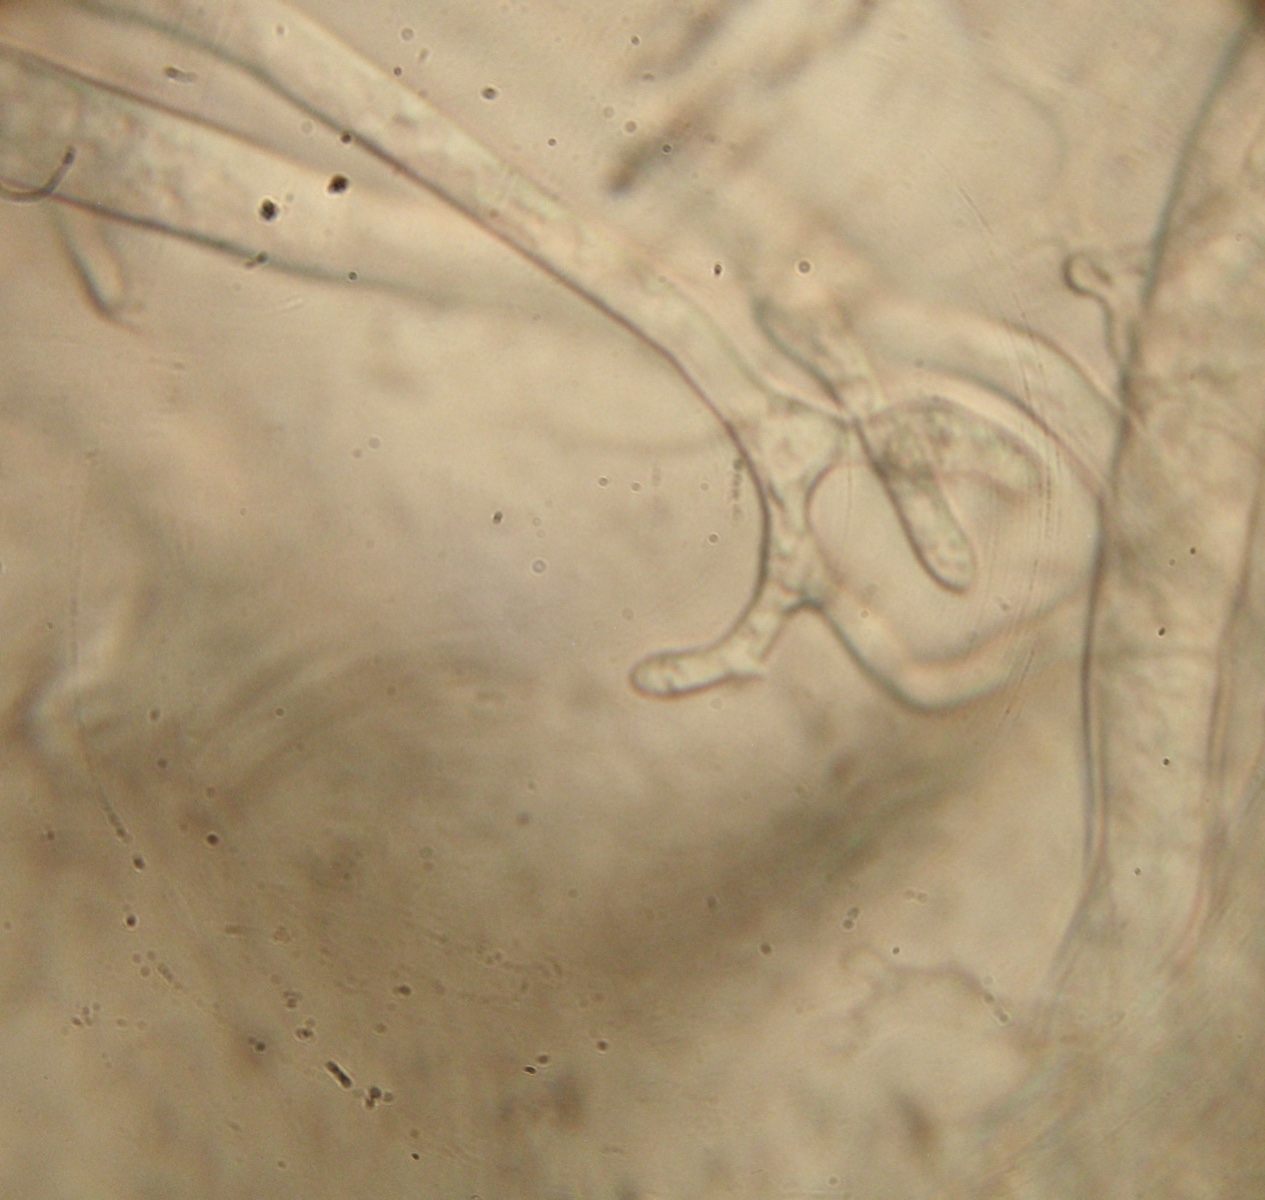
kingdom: Fungi
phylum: Ascomycota
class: Pezizomycetes
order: Pezizales
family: Chorioactidaceae
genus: Desmazierella
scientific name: Desmazierella acicola
